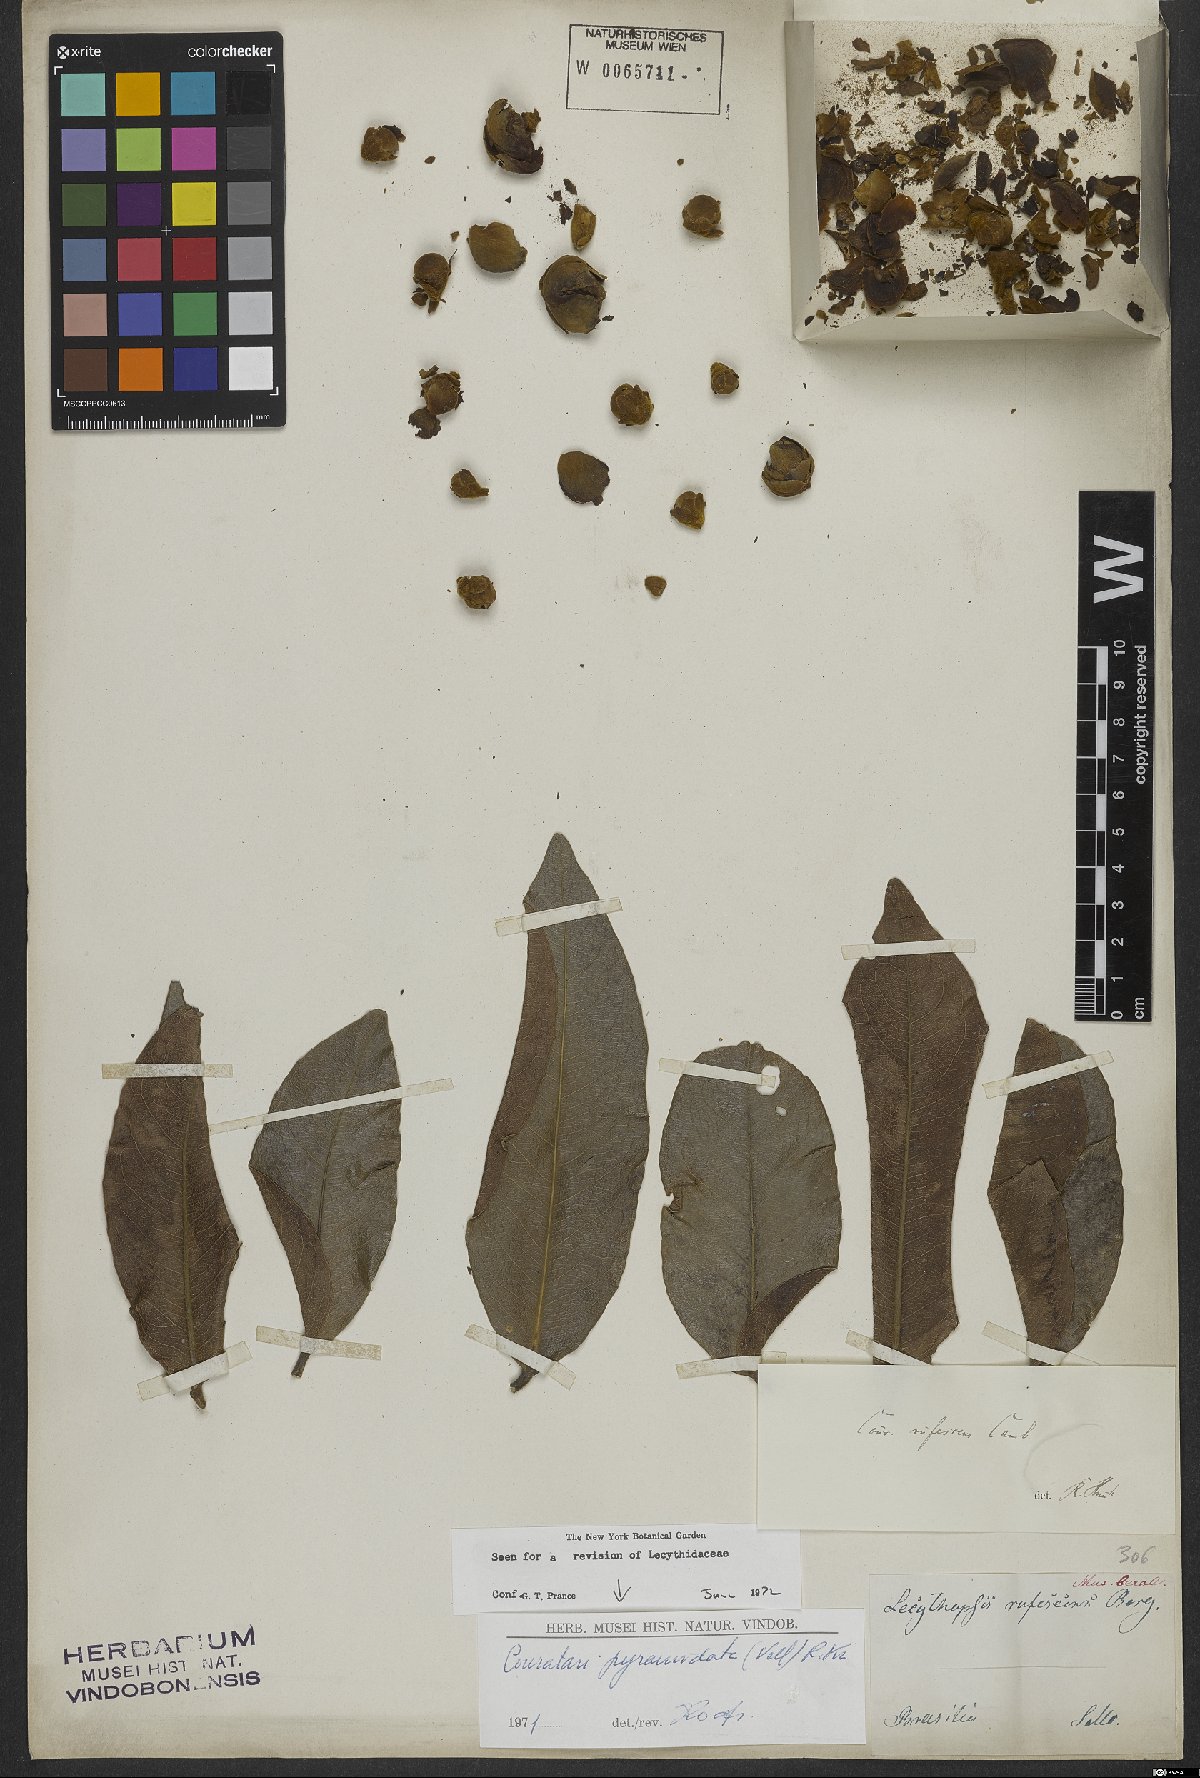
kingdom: Plantae
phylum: Tracheophyta
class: Magnoliopsida
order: Ericales
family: Lecythidaceae
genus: Couratari
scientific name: Couratari pyramidata
